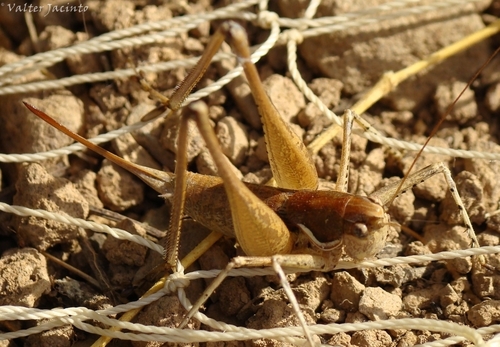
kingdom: Animalia
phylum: Arthropoda
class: Insecta
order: Orthoptera
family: Tettigoniidae
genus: Pterolepis
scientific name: Pterolepis spoliata
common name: Disarmed bush-cricket
